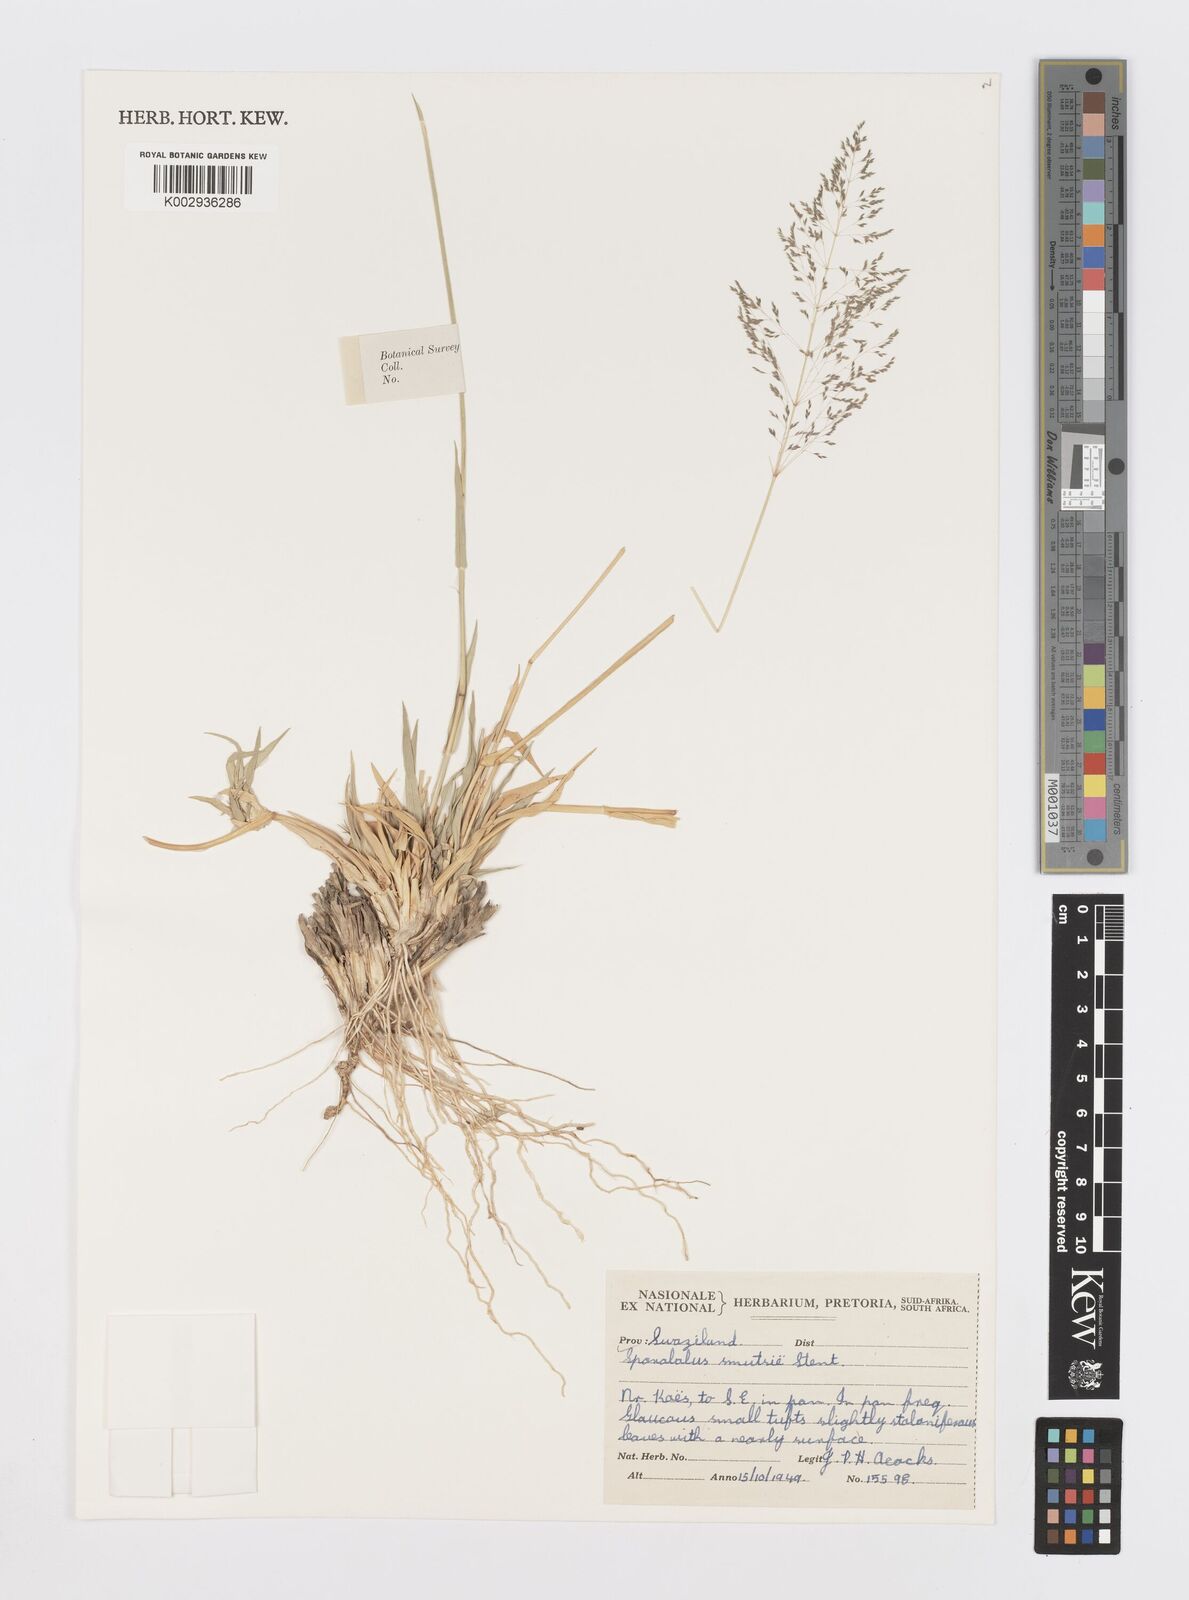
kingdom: Plantae
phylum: Tracheophyta
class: Liliopsida
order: Poales
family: Poaceae
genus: Sporobolus
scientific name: Sporobolus ioclados
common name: Pan dropseed
